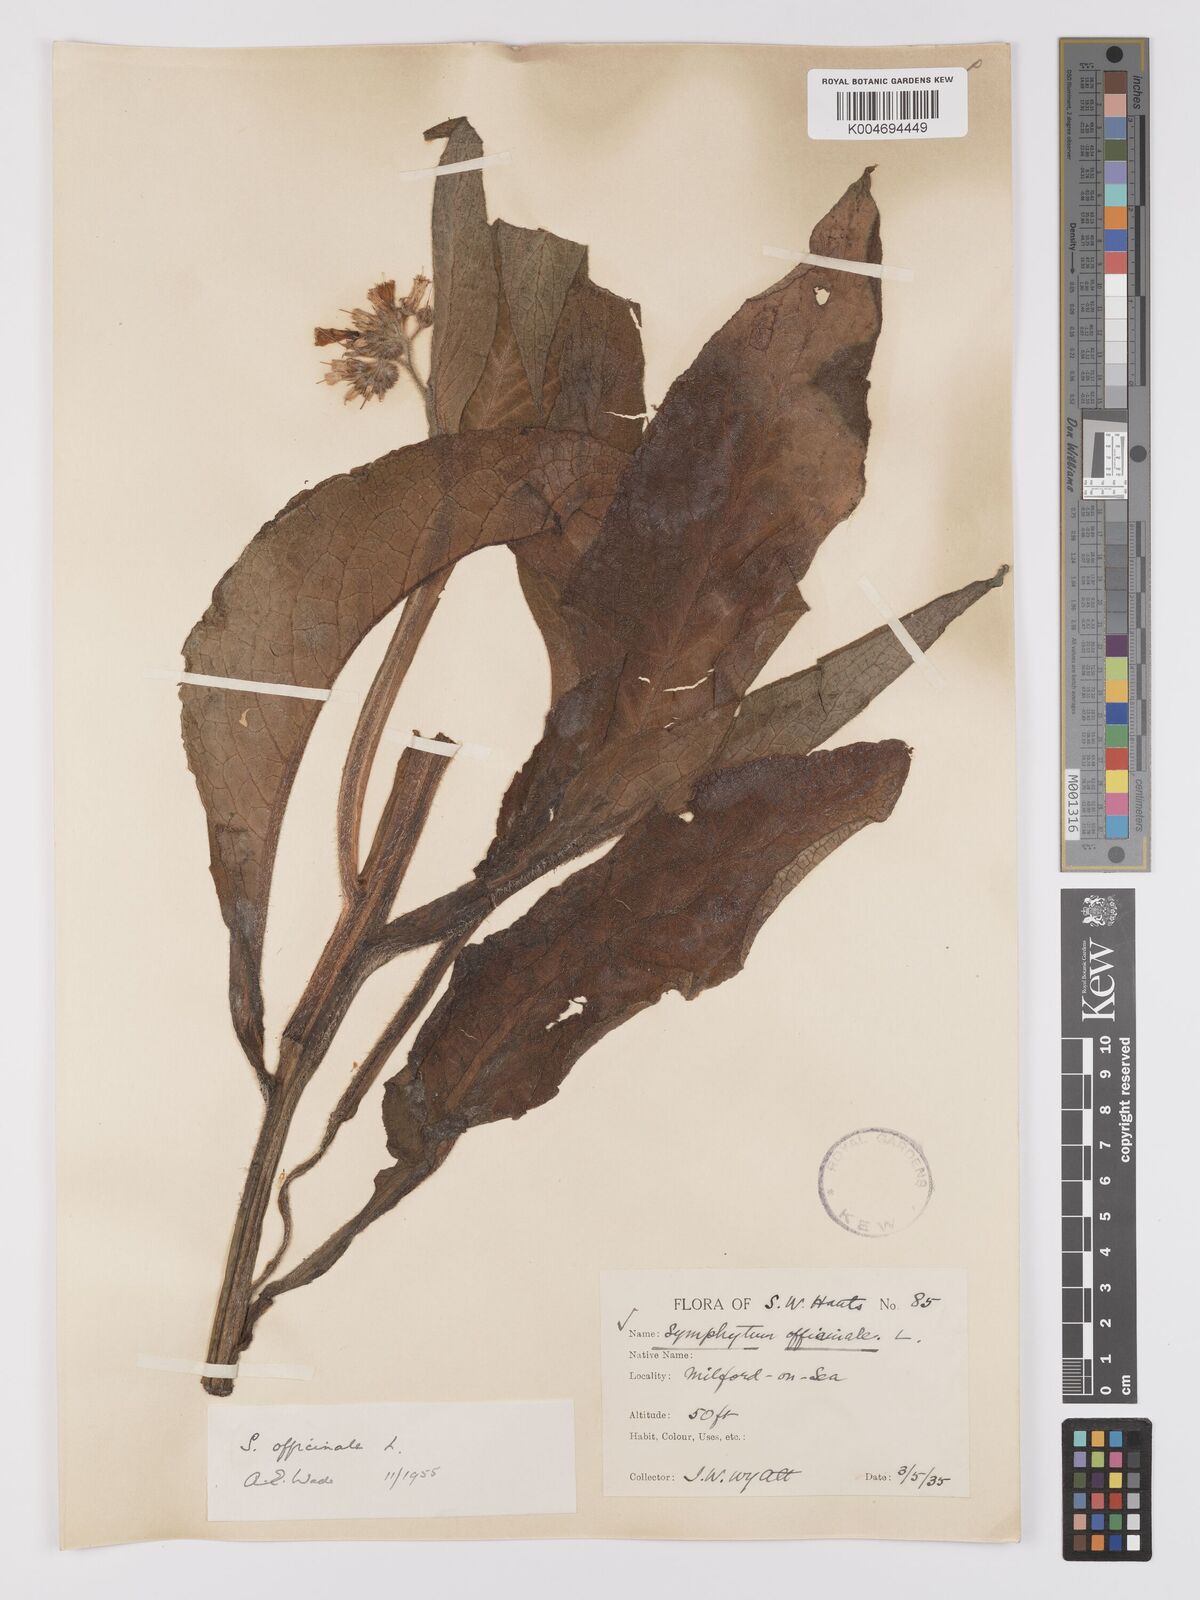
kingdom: Plantae
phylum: Tracheophyta
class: Magnoliopsida
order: Boraginales
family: Boraginaceae
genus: Symphytum
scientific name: Symphytum officinale
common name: Common comfrey
